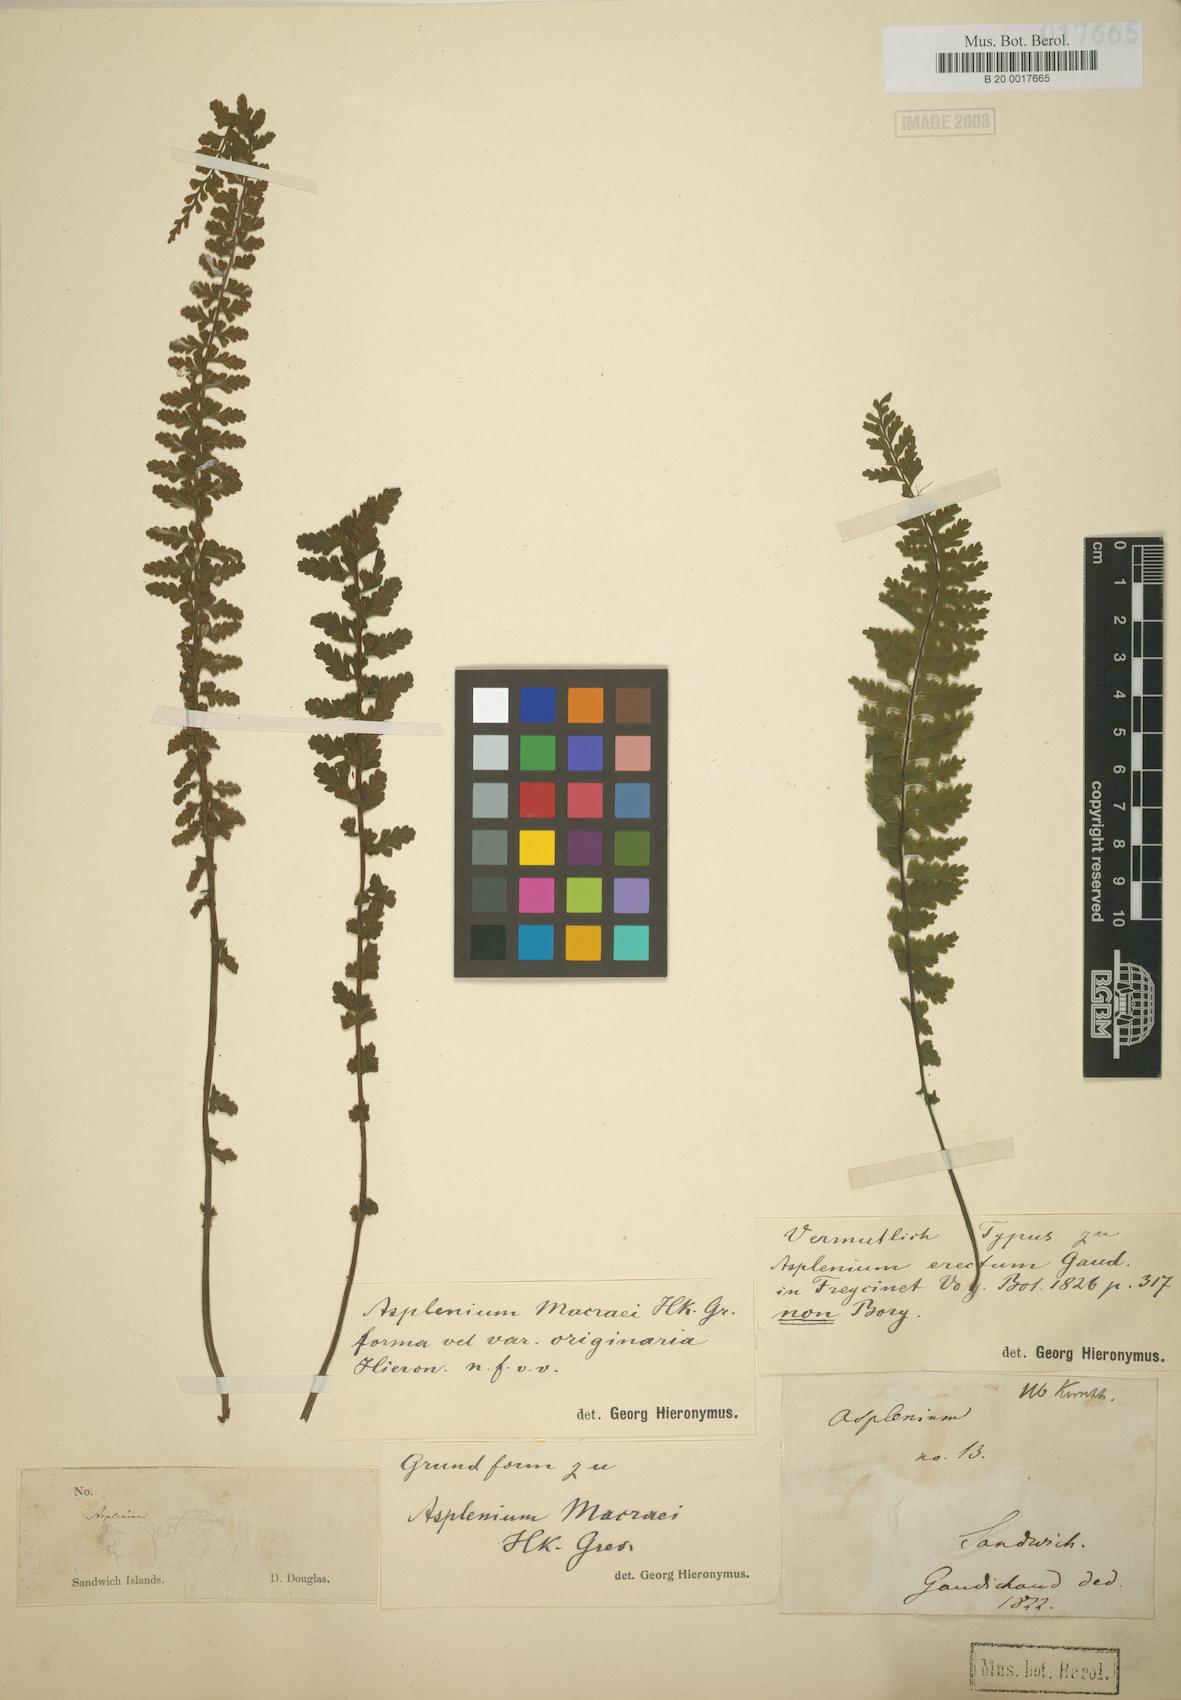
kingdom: Plantae
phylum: Tracheophyta
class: Polypodiopsida
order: Polypodiales
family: Aspleniaceae
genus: Asplenium
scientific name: Asplenium macraei
